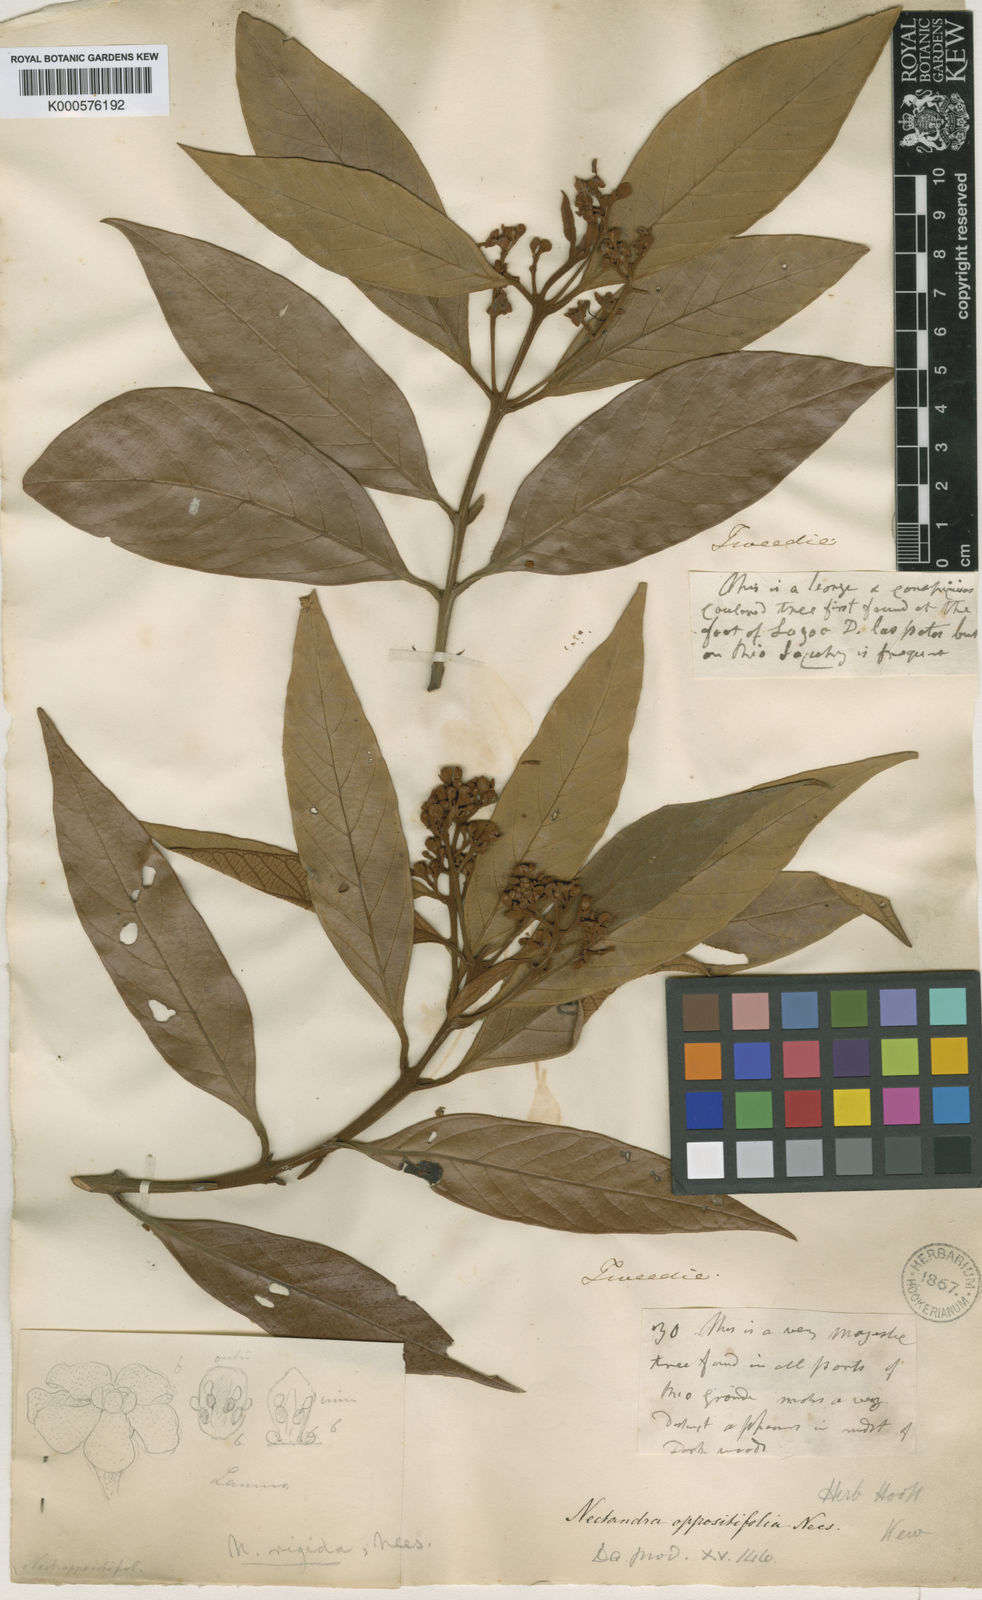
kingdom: Plantae
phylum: Tracheophyta
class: Magnoliopsida
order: Laurales
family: Lauraceae
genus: Nectandra
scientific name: Nectandra oppositifolia
